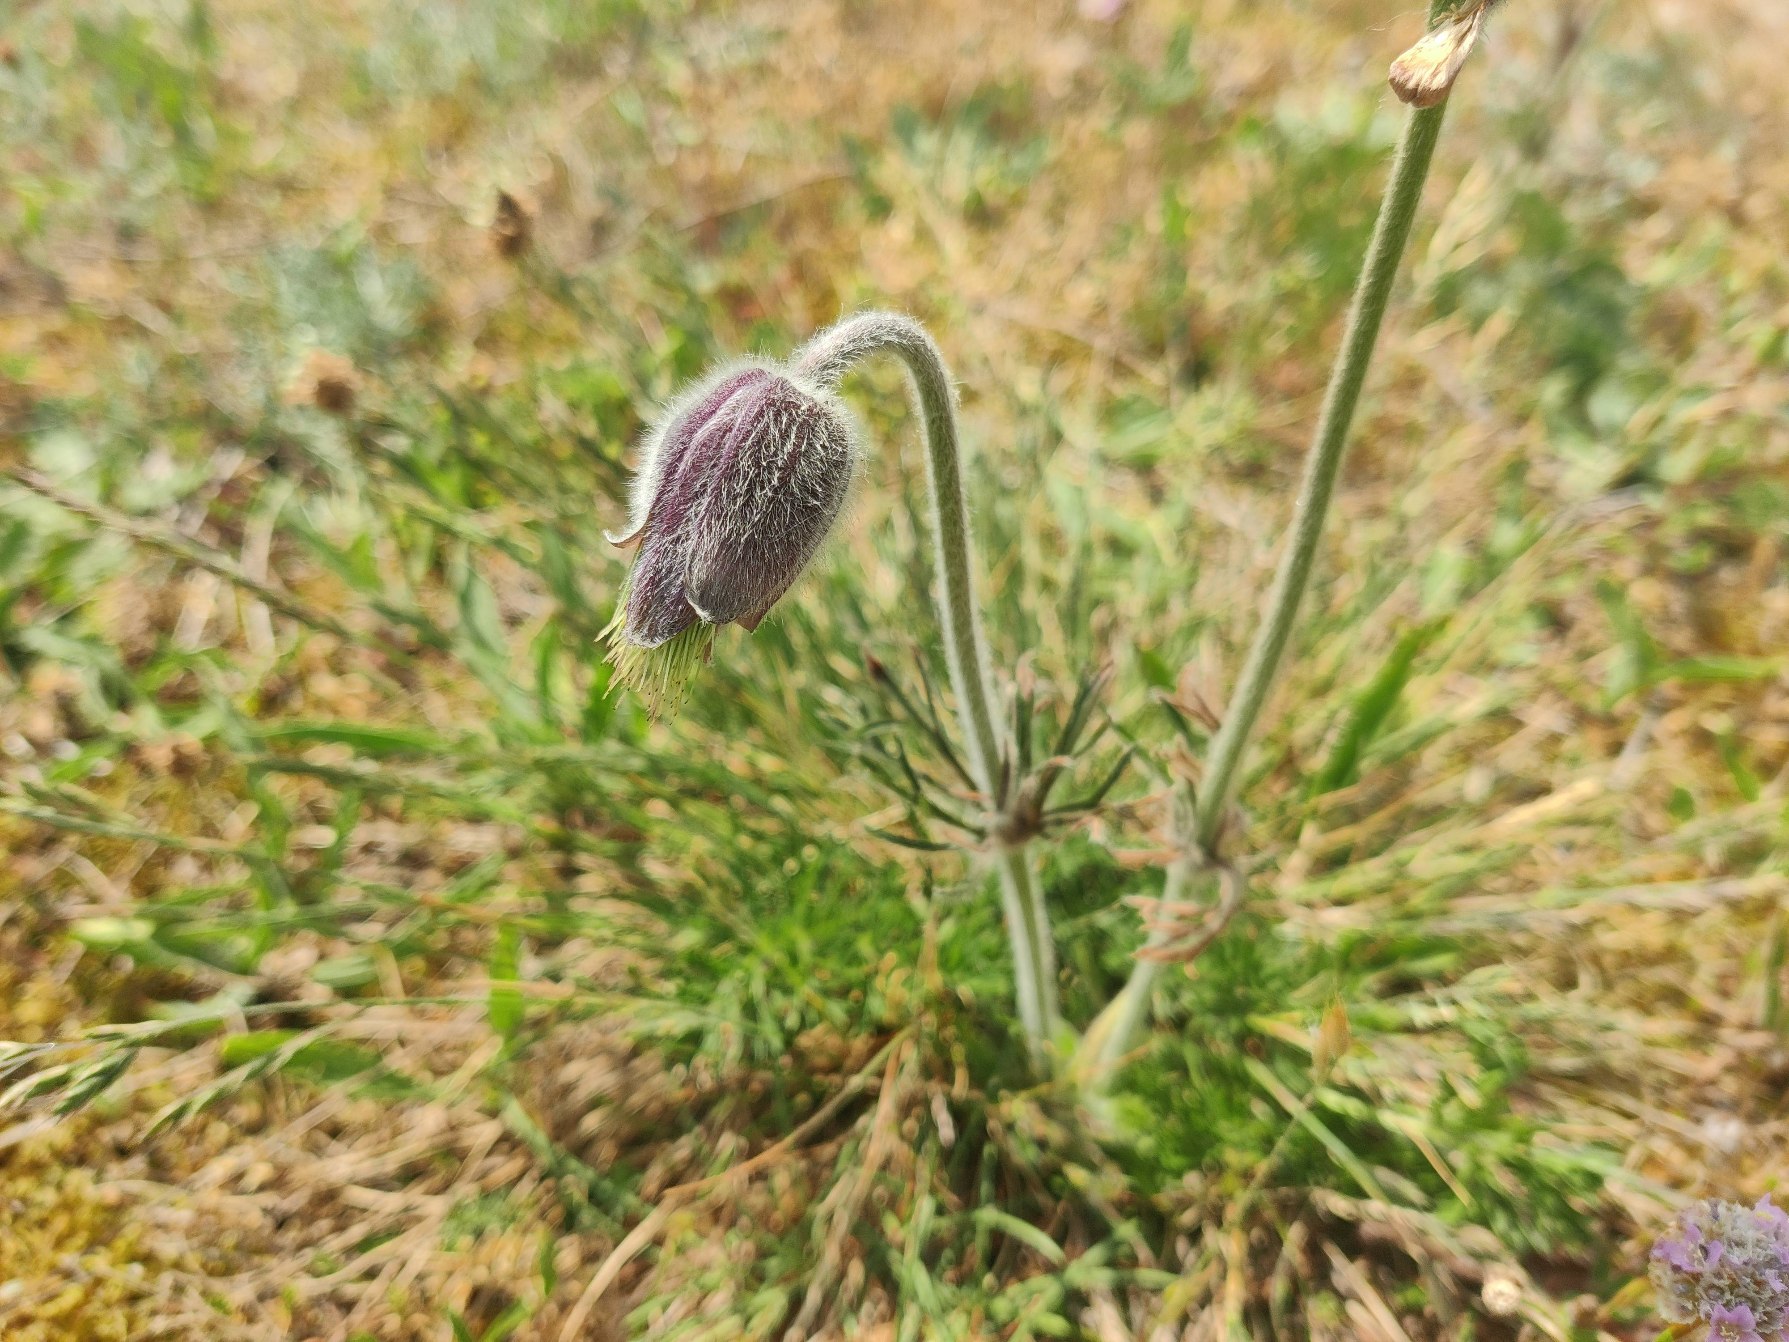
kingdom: Plantae
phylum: Tracheophyta
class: Magnoliopsida
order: Ranunculales
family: Ranunculaceae
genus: Pulsatilla
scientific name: Pulsatilla pratensis
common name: Nikkende kobjælde
